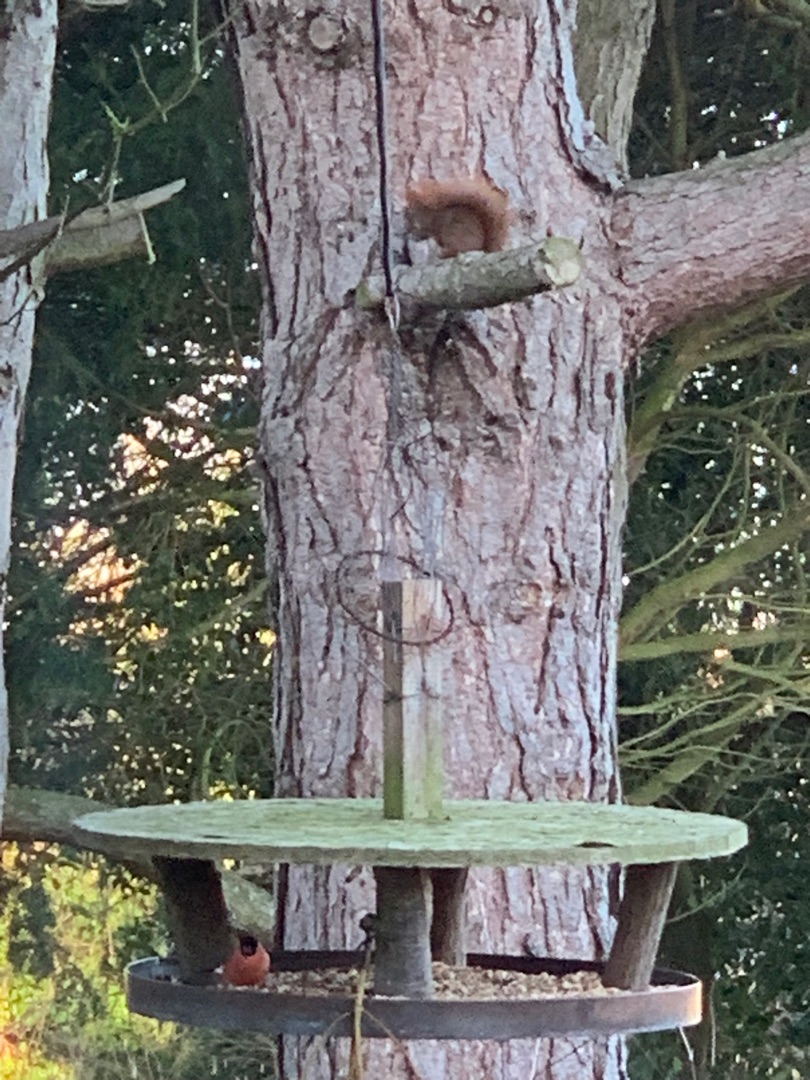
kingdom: Animalia
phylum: Chordata
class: Mammalia
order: Rodentia
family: Sciuridae
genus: Sciurus
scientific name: Sciurus vulgaris
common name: Egern
